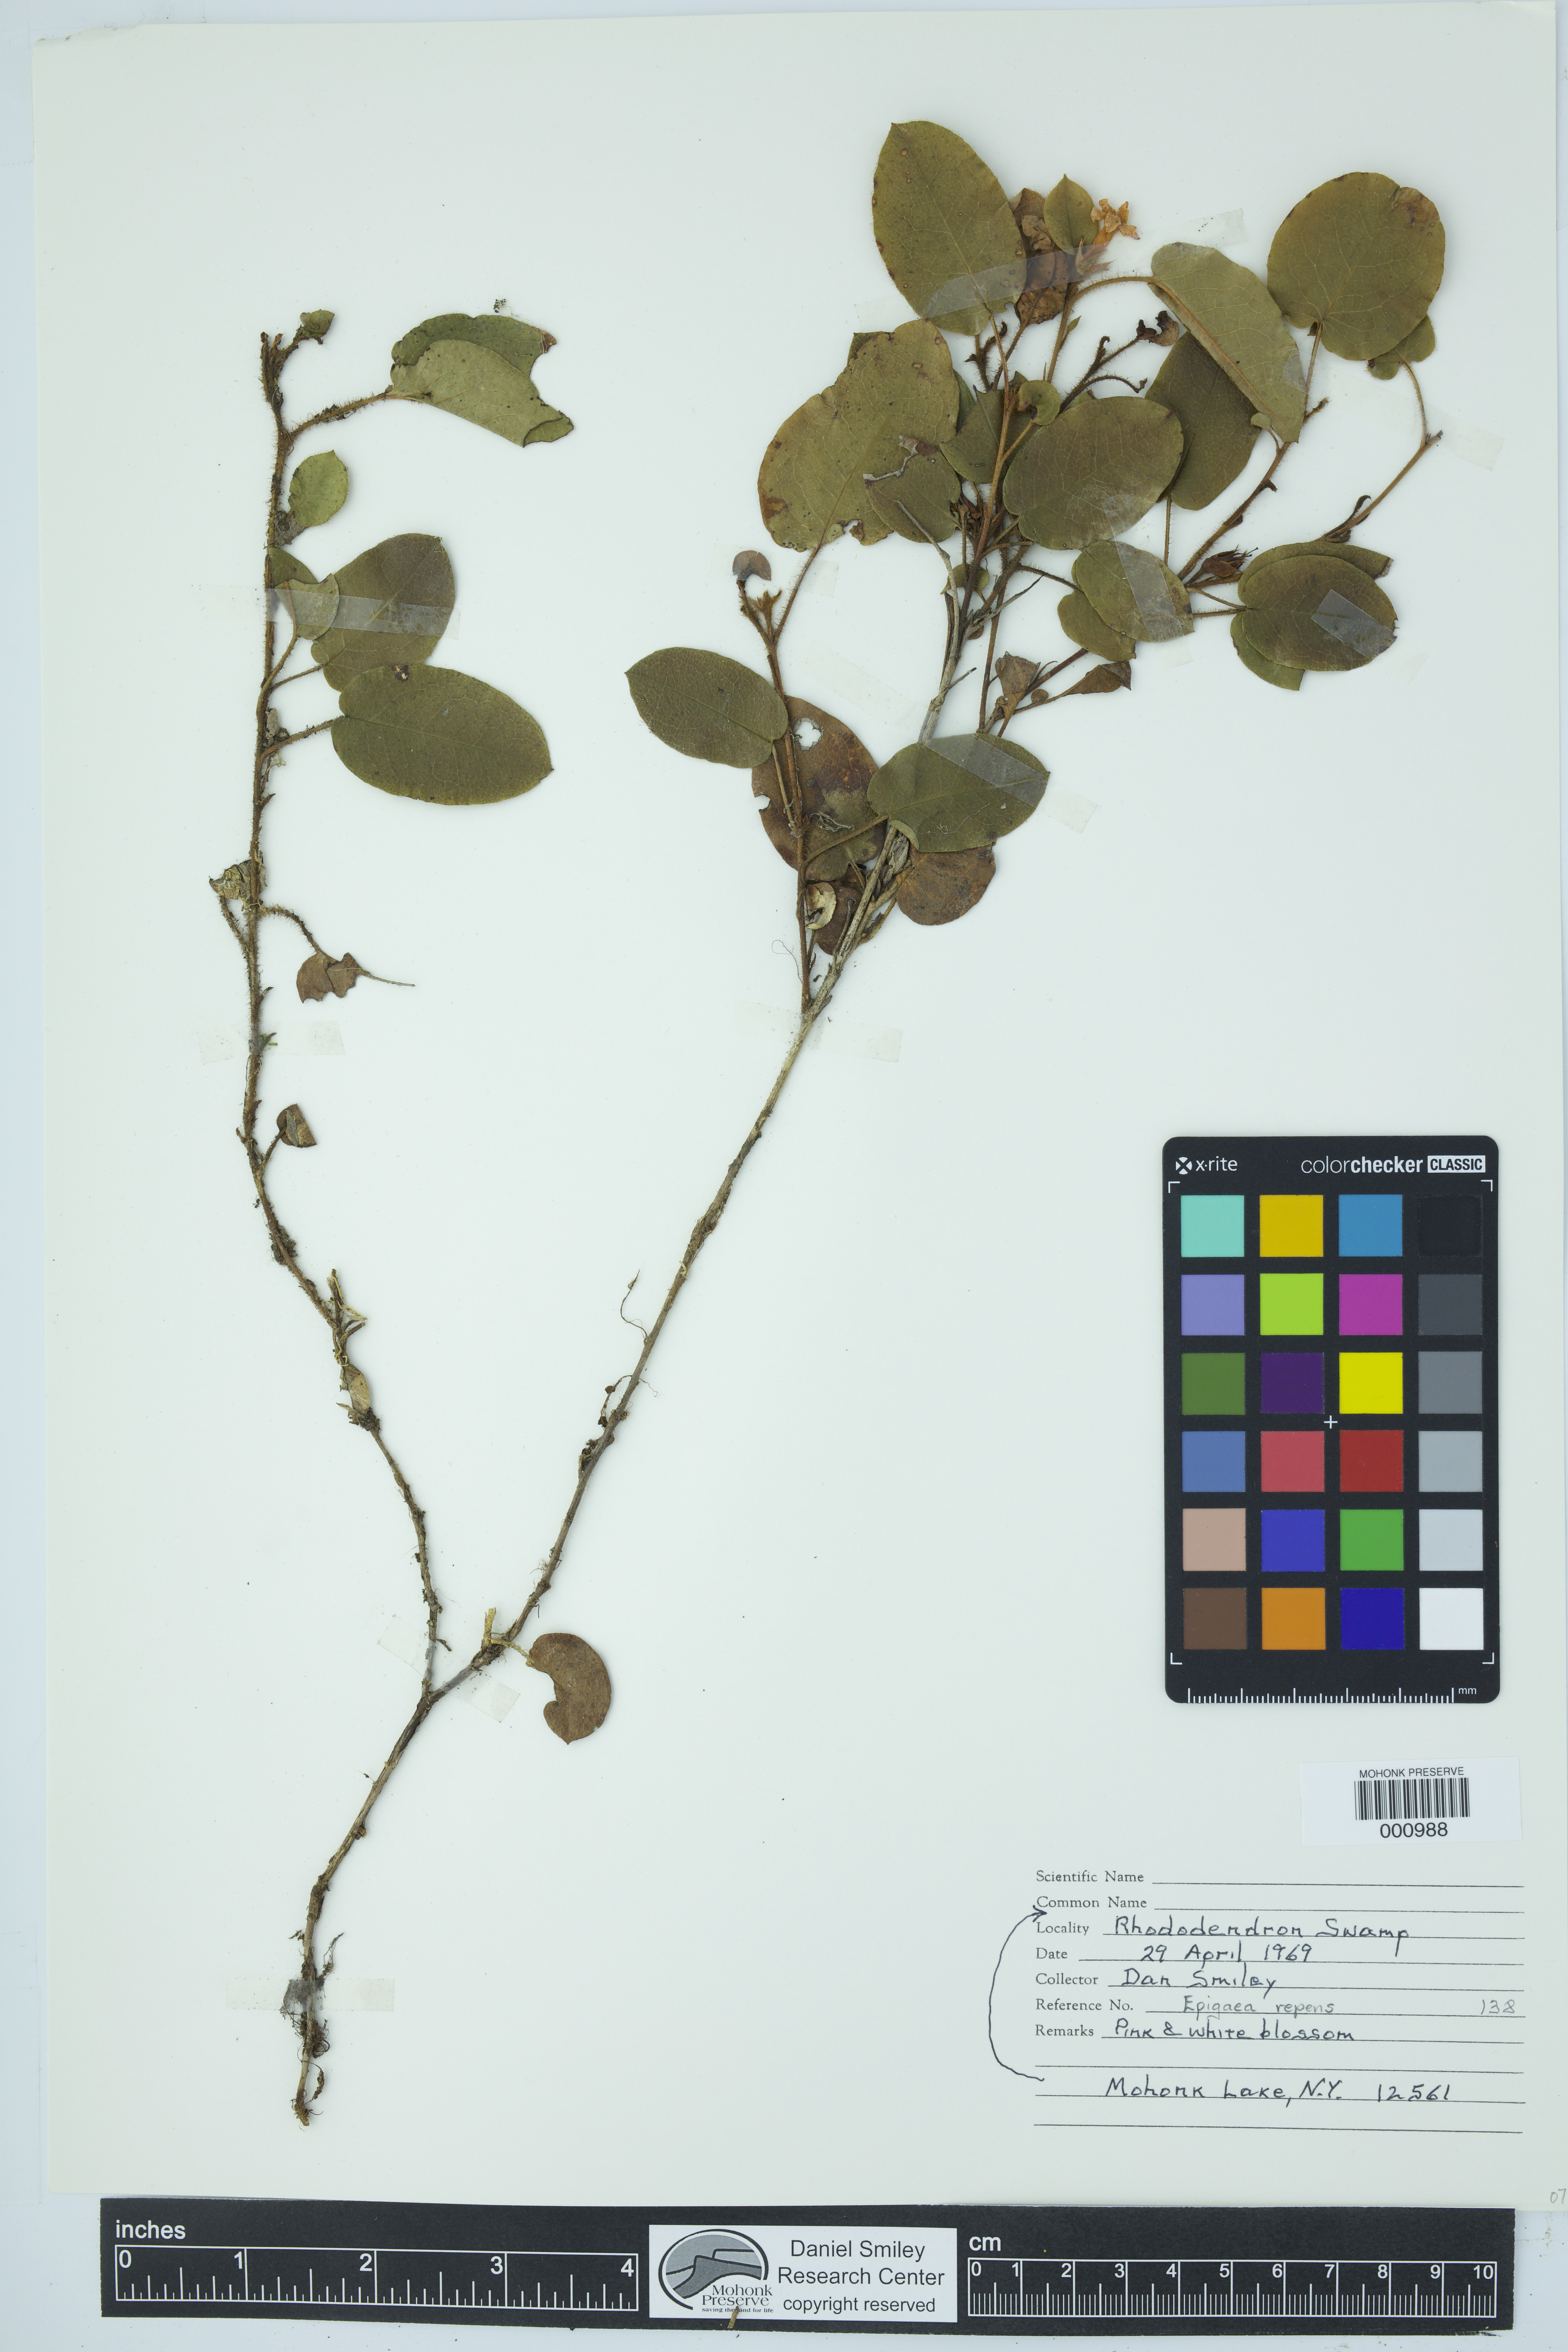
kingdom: Plantae
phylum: Tracheophyta
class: Magnoliopsida
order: Ericales
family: Ericaceae
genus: Epigaea
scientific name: Epigaea repens
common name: Gravelroot
